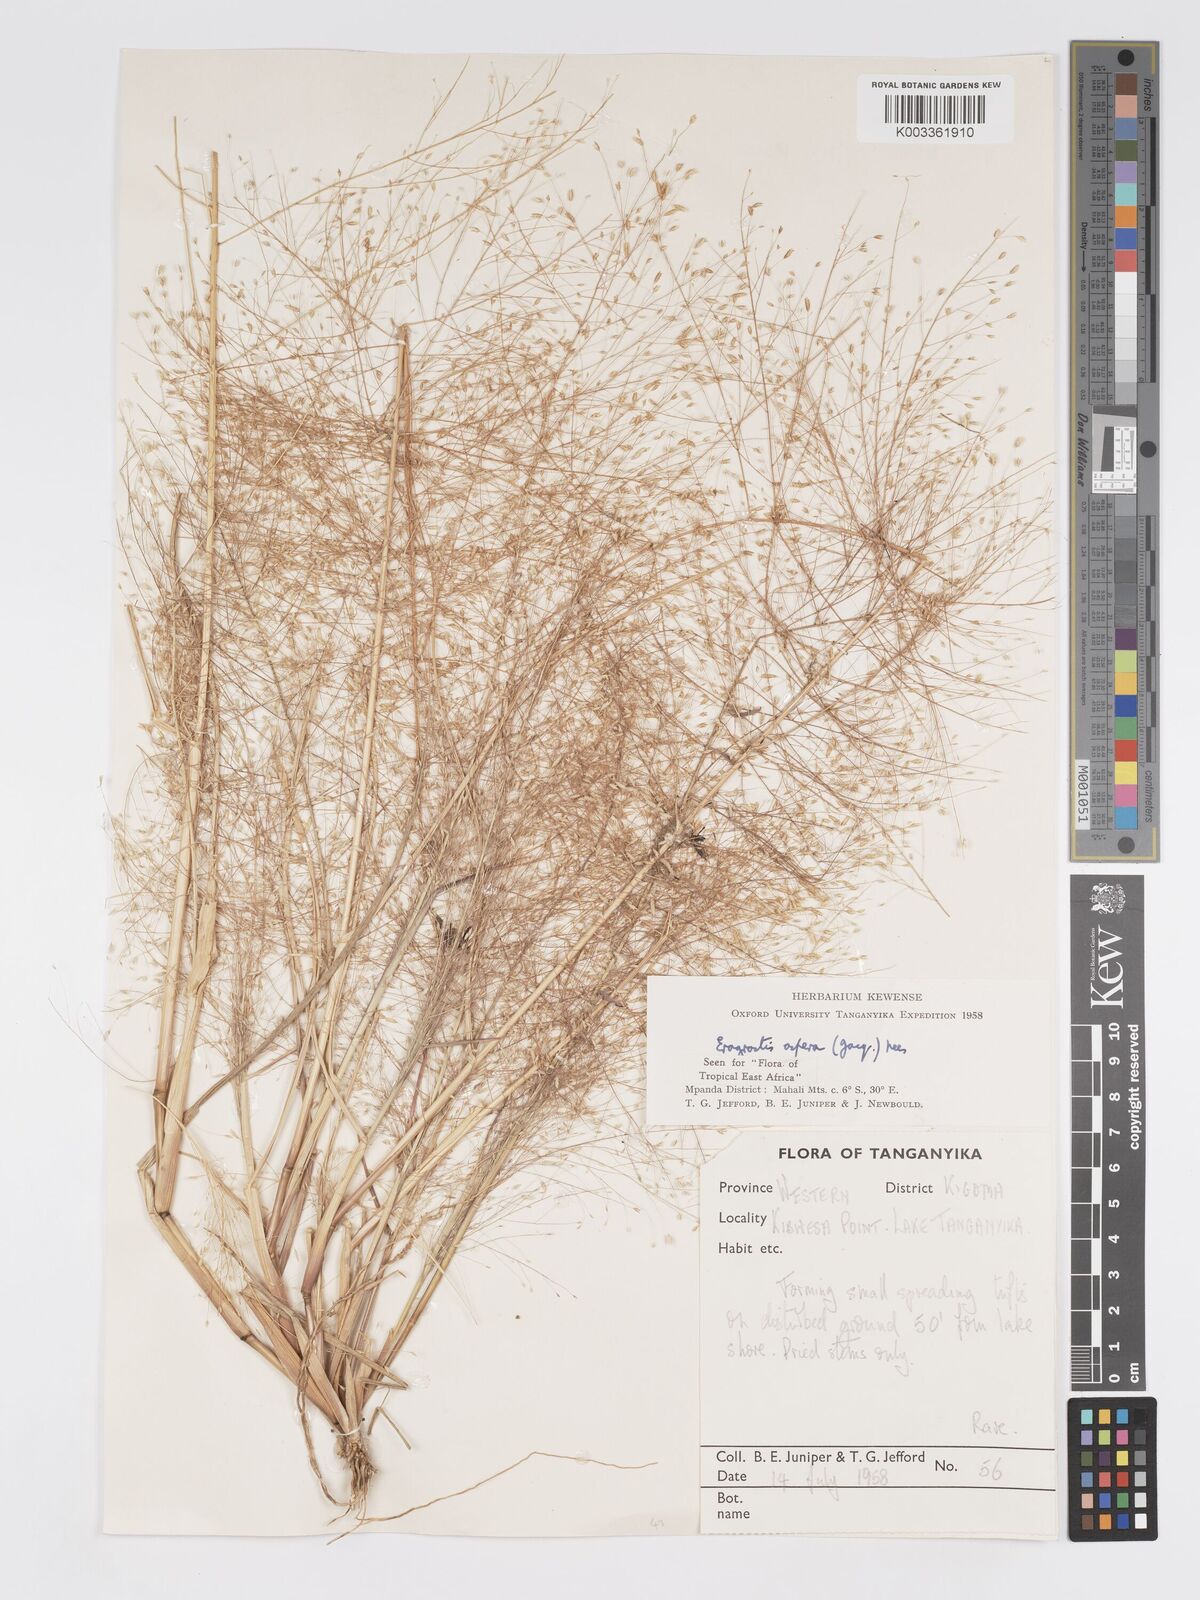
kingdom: Plantae
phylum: Tracheophyta
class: Liliopsida
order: Poales
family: Poaceae
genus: Eragrostis
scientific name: Eragrostis aspera
